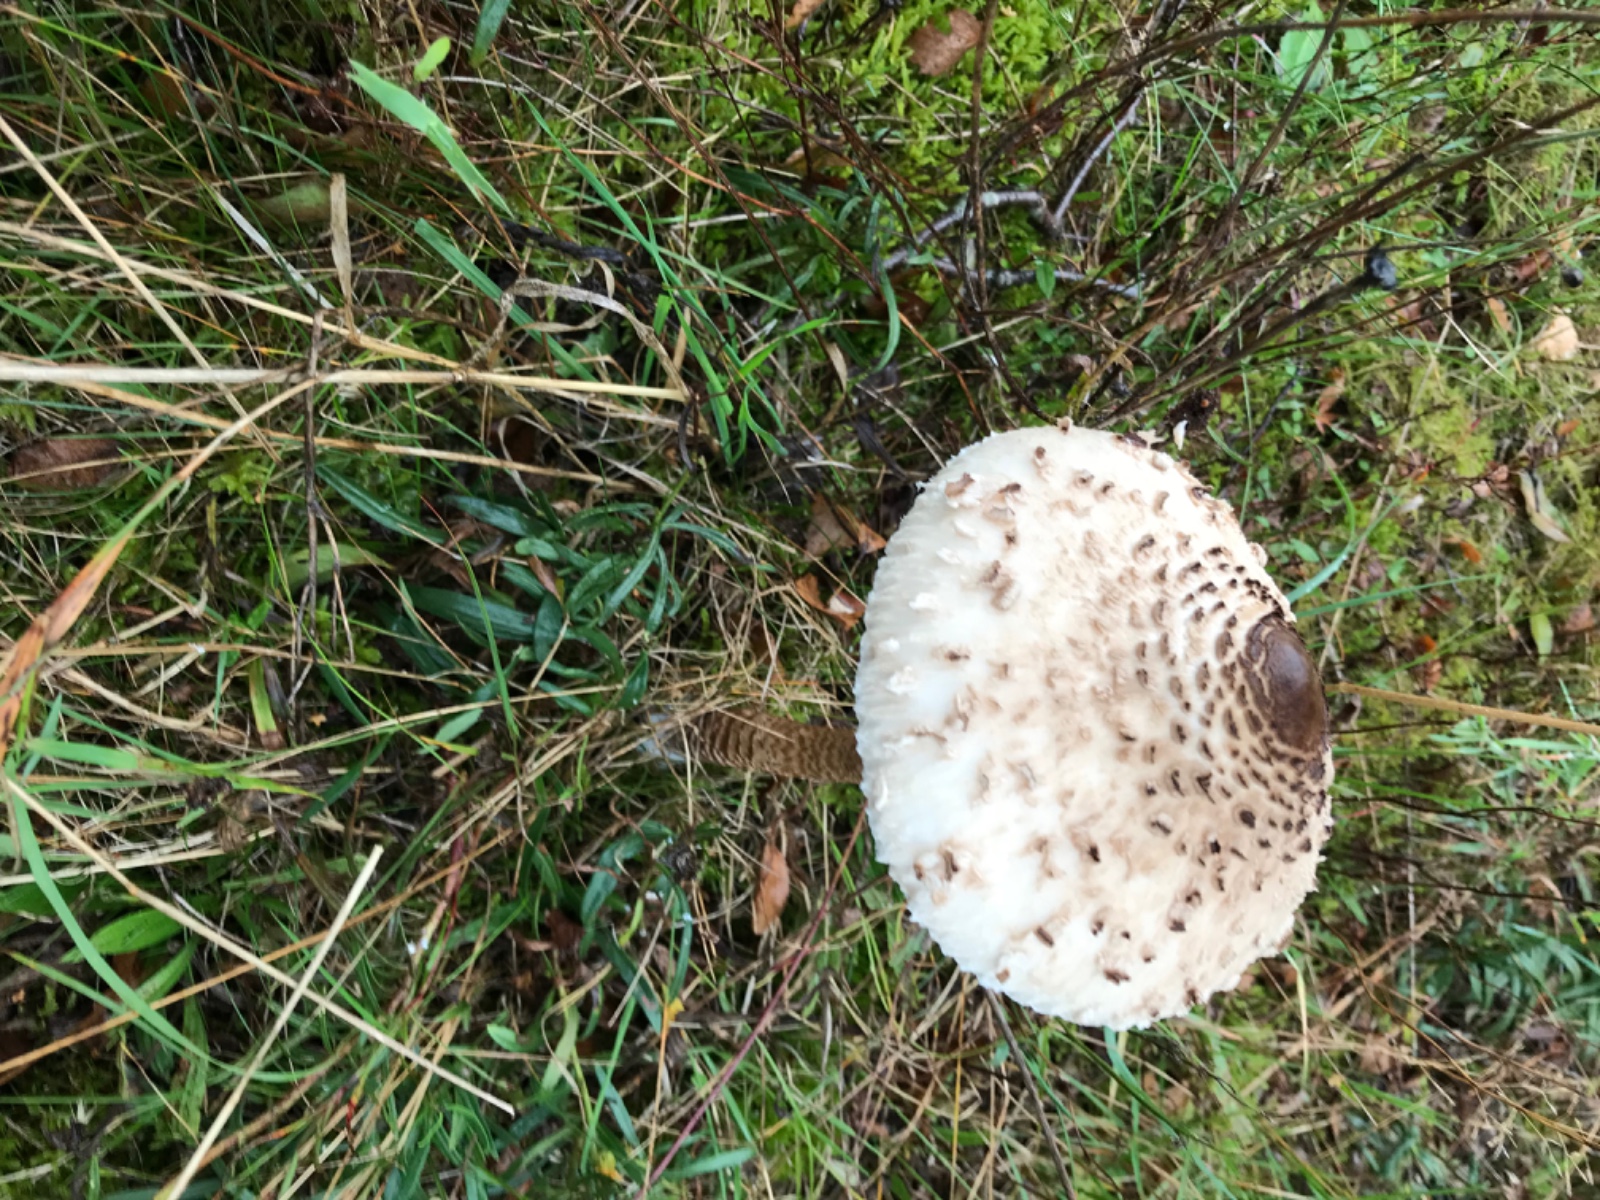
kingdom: Fungi
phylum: Basidiomycota
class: Agaricomycetes
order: Agaricales
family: Agaricaceae
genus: Macrolepiota
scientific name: Macrolepiota procera
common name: stor kæmpeparasolhat
